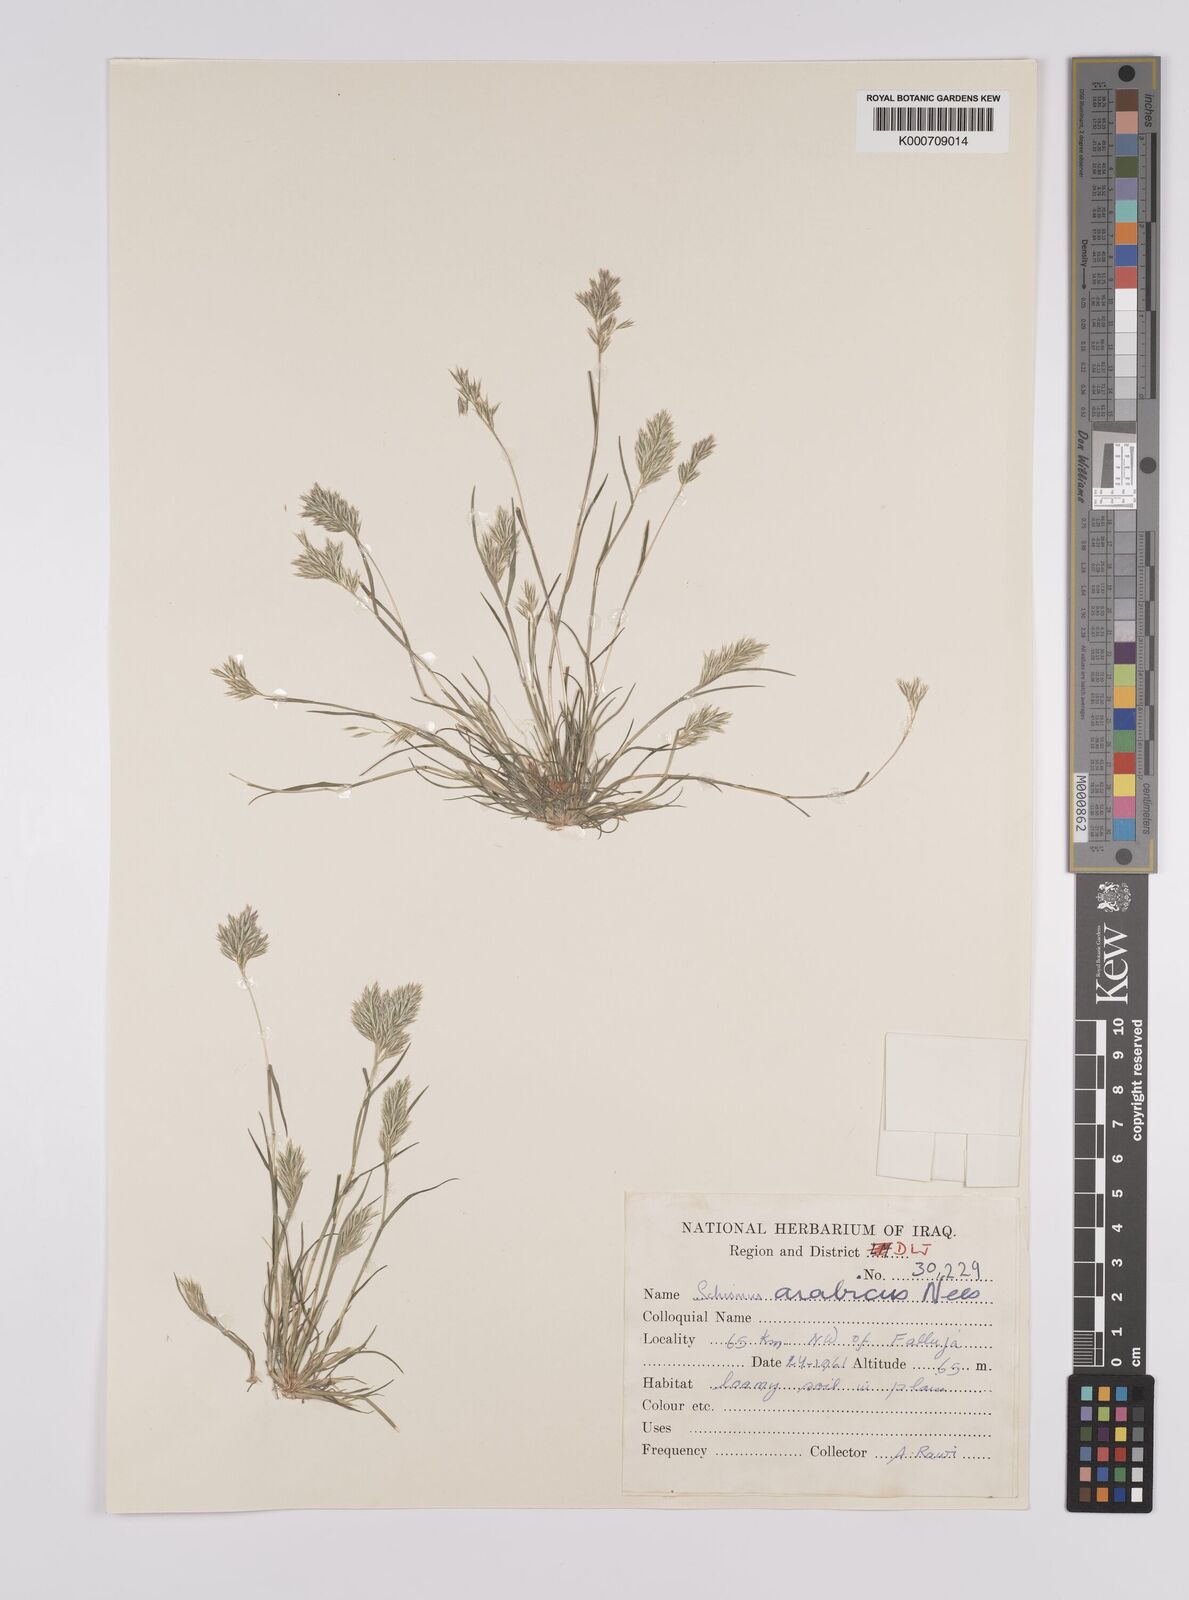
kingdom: Plantae
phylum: Tracheophyta
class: Liliopsida
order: Poales
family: Poaceae
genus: Schismus
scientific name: Schismus arabicus
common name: Arabian schismus
